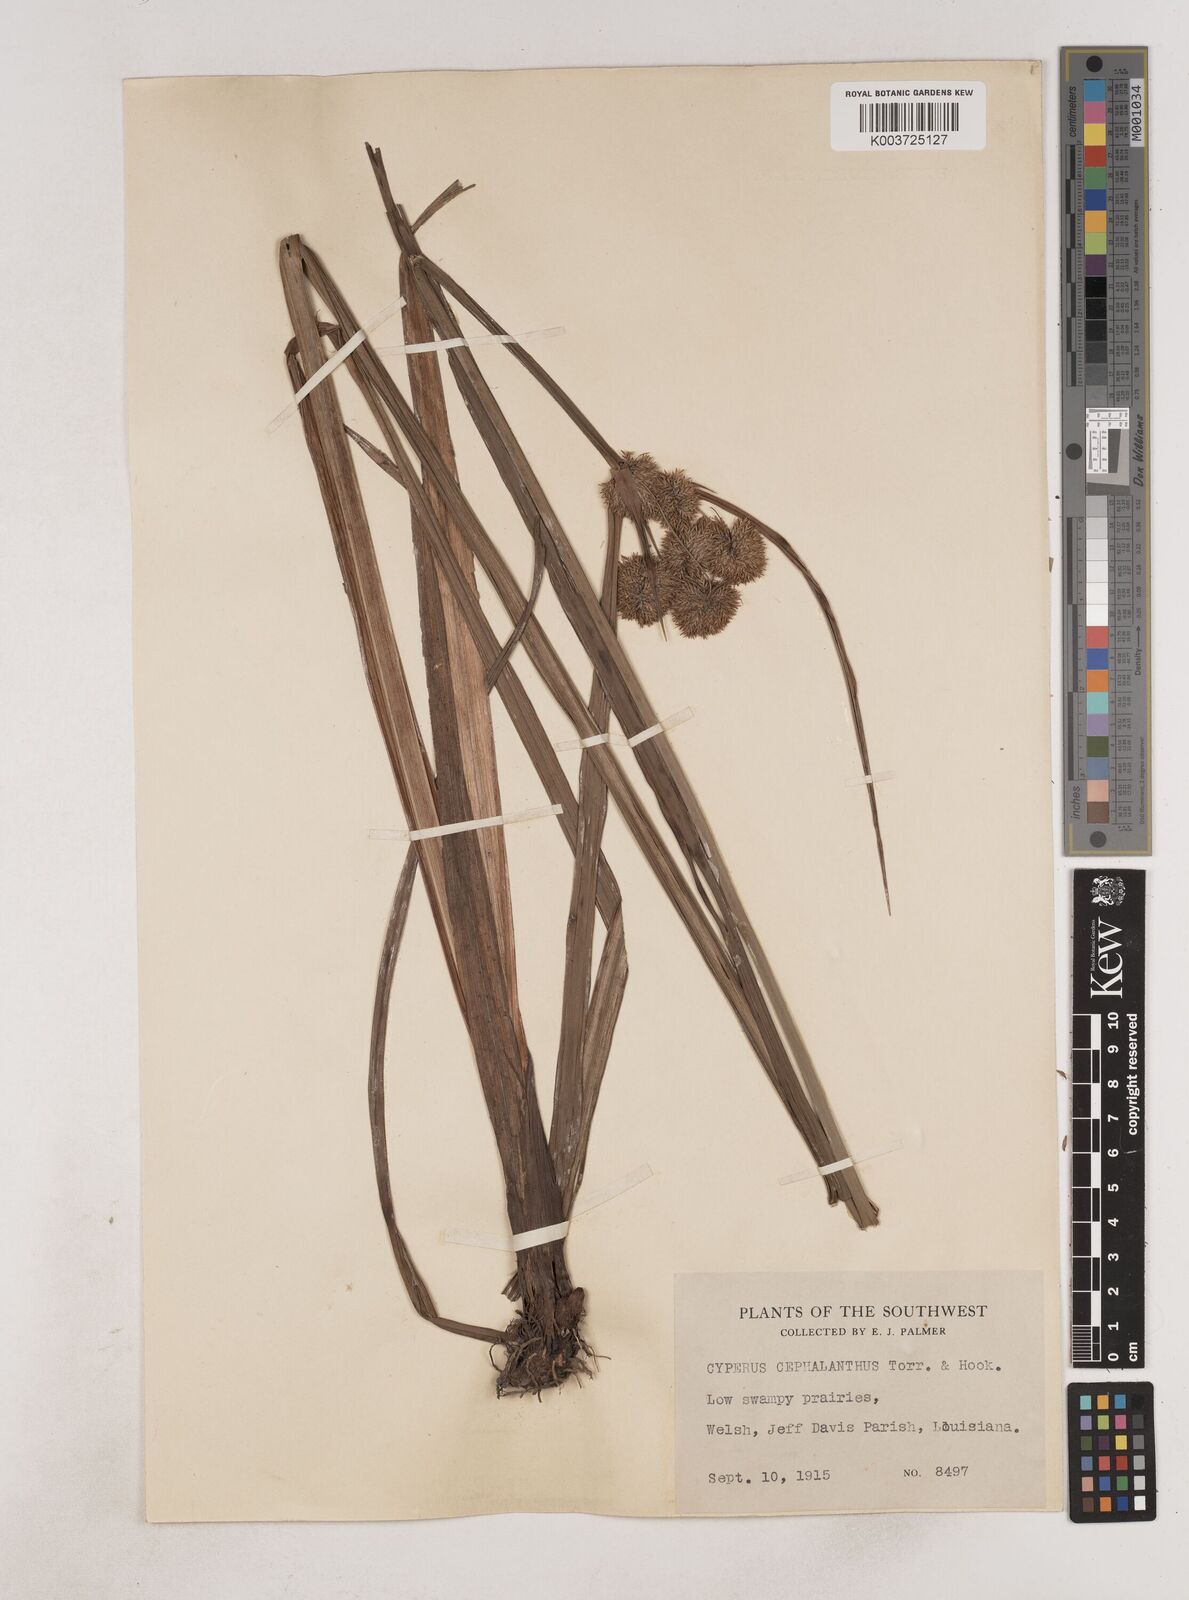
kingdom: Plantae
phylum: Tracheophyta
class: Liliopsida
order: Poales
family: Cyperaceae
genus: Cyperus
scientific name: Cyperus cephalanthus
